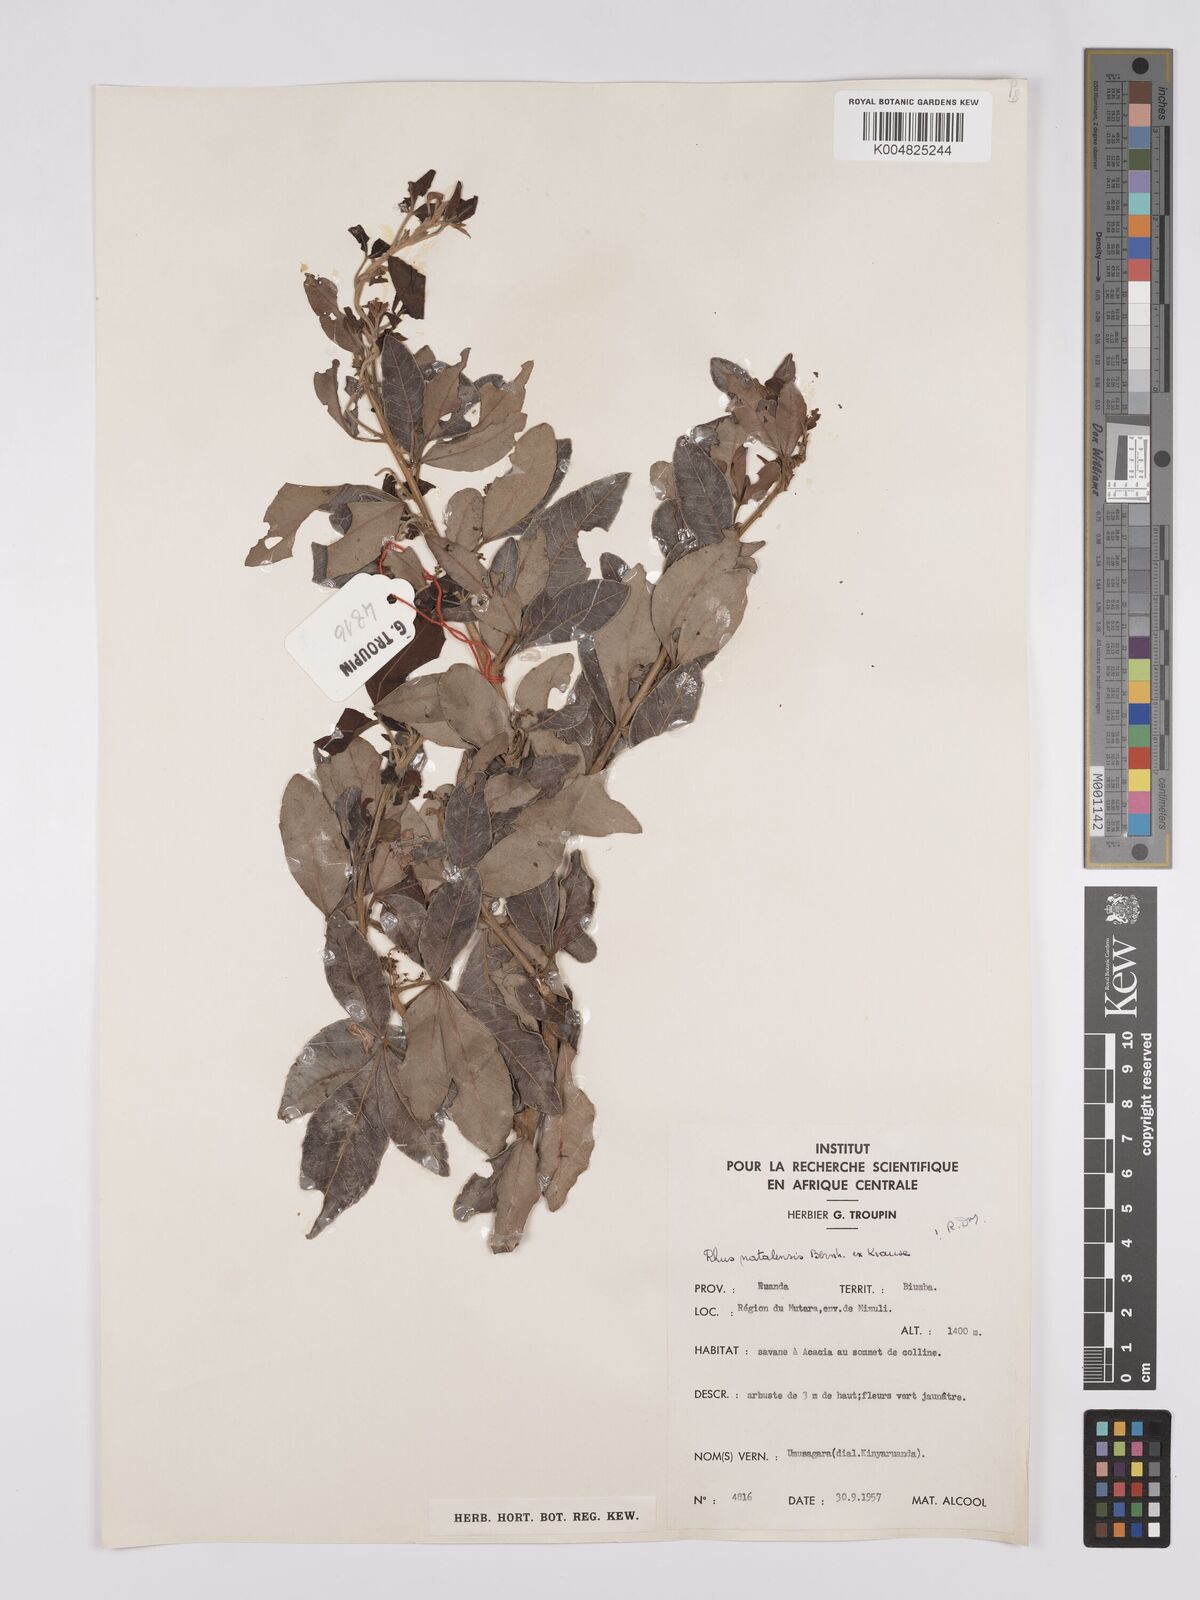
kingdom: Plantae
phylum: Tracheophyta
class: Magnoliopsida
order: Sapindales
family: Anacardiaceae
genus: Searsia
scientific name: Searsia natalensis
